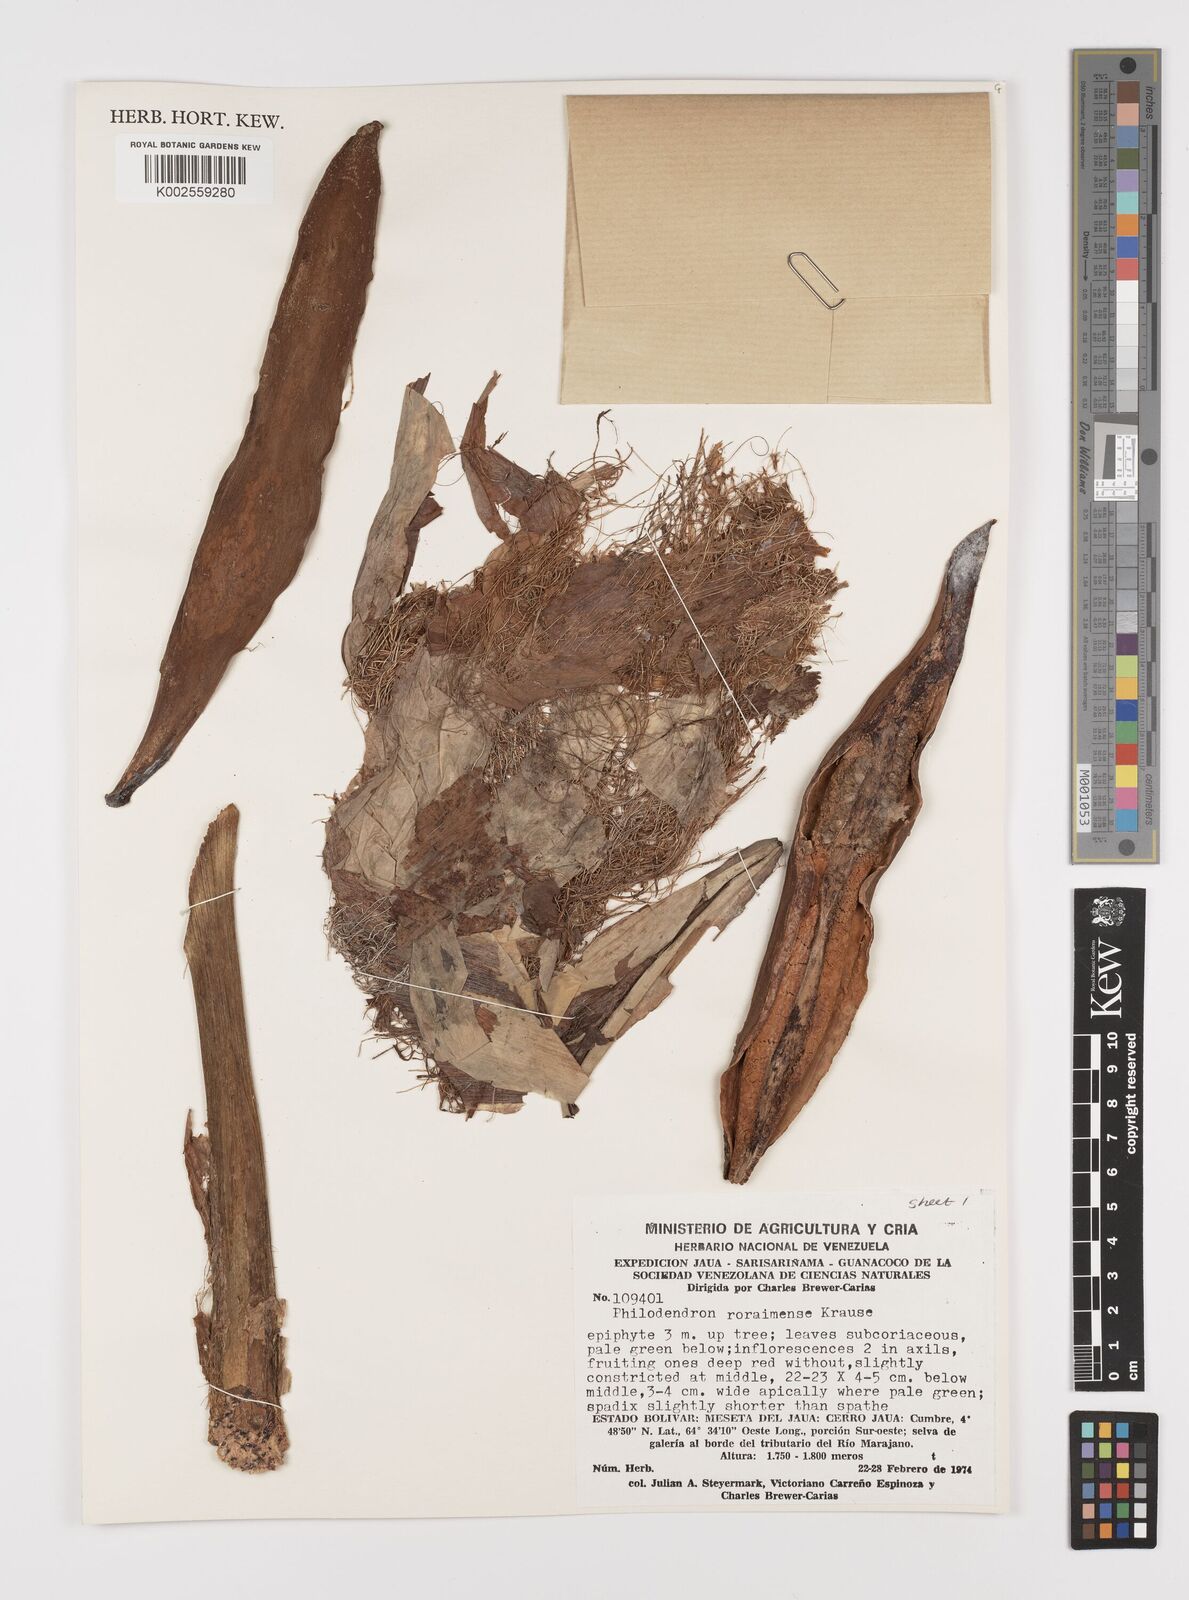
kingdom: Plantae
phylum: Tracheophyta
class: Liliopsida
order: Alismatales
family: Araceae
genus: Philodendron
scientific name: Philodendron roraimae
